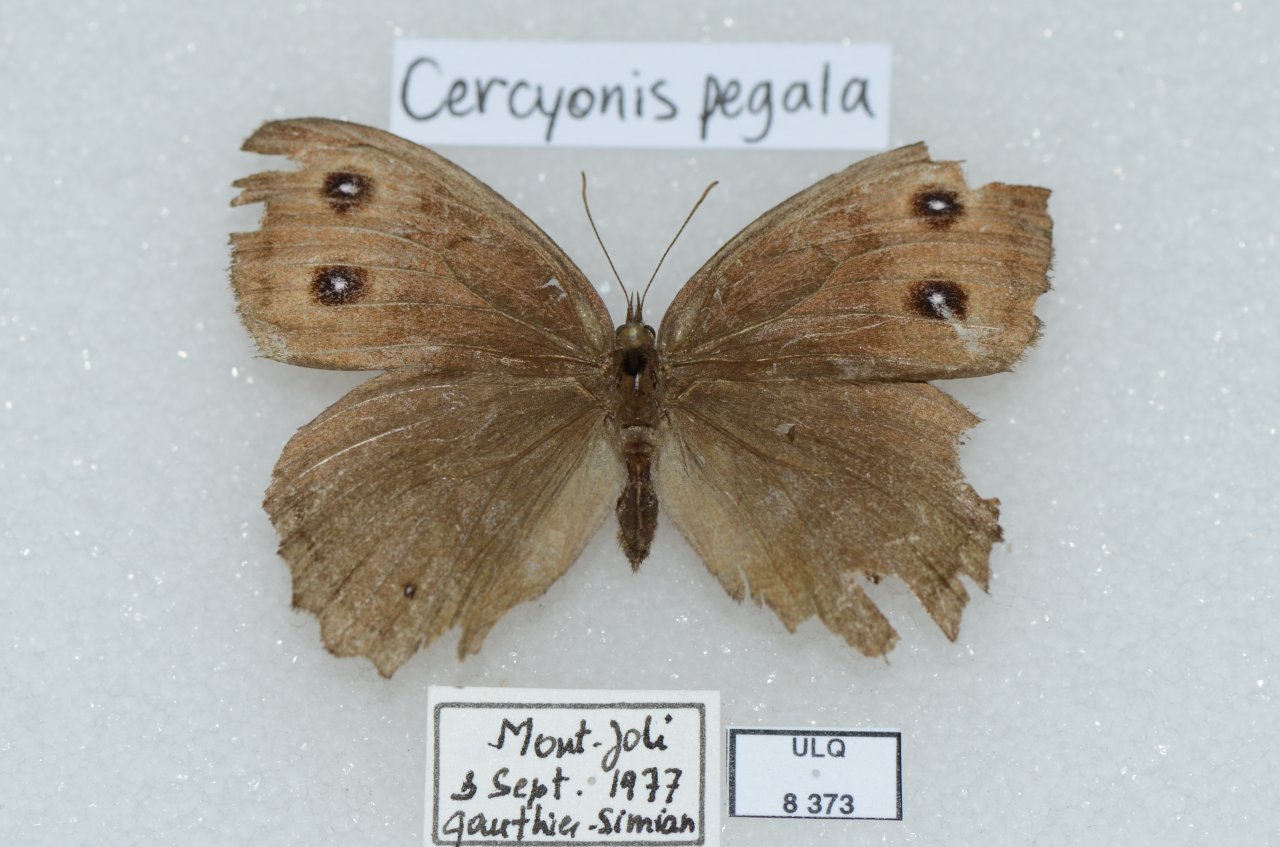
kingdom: Animalia
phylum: Arthropoda
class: Insecta
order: Lepidoptera
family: Nymphalidae
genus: Cercyonis
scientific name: Cercyonis pegala
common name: Common Wood-Nymph
